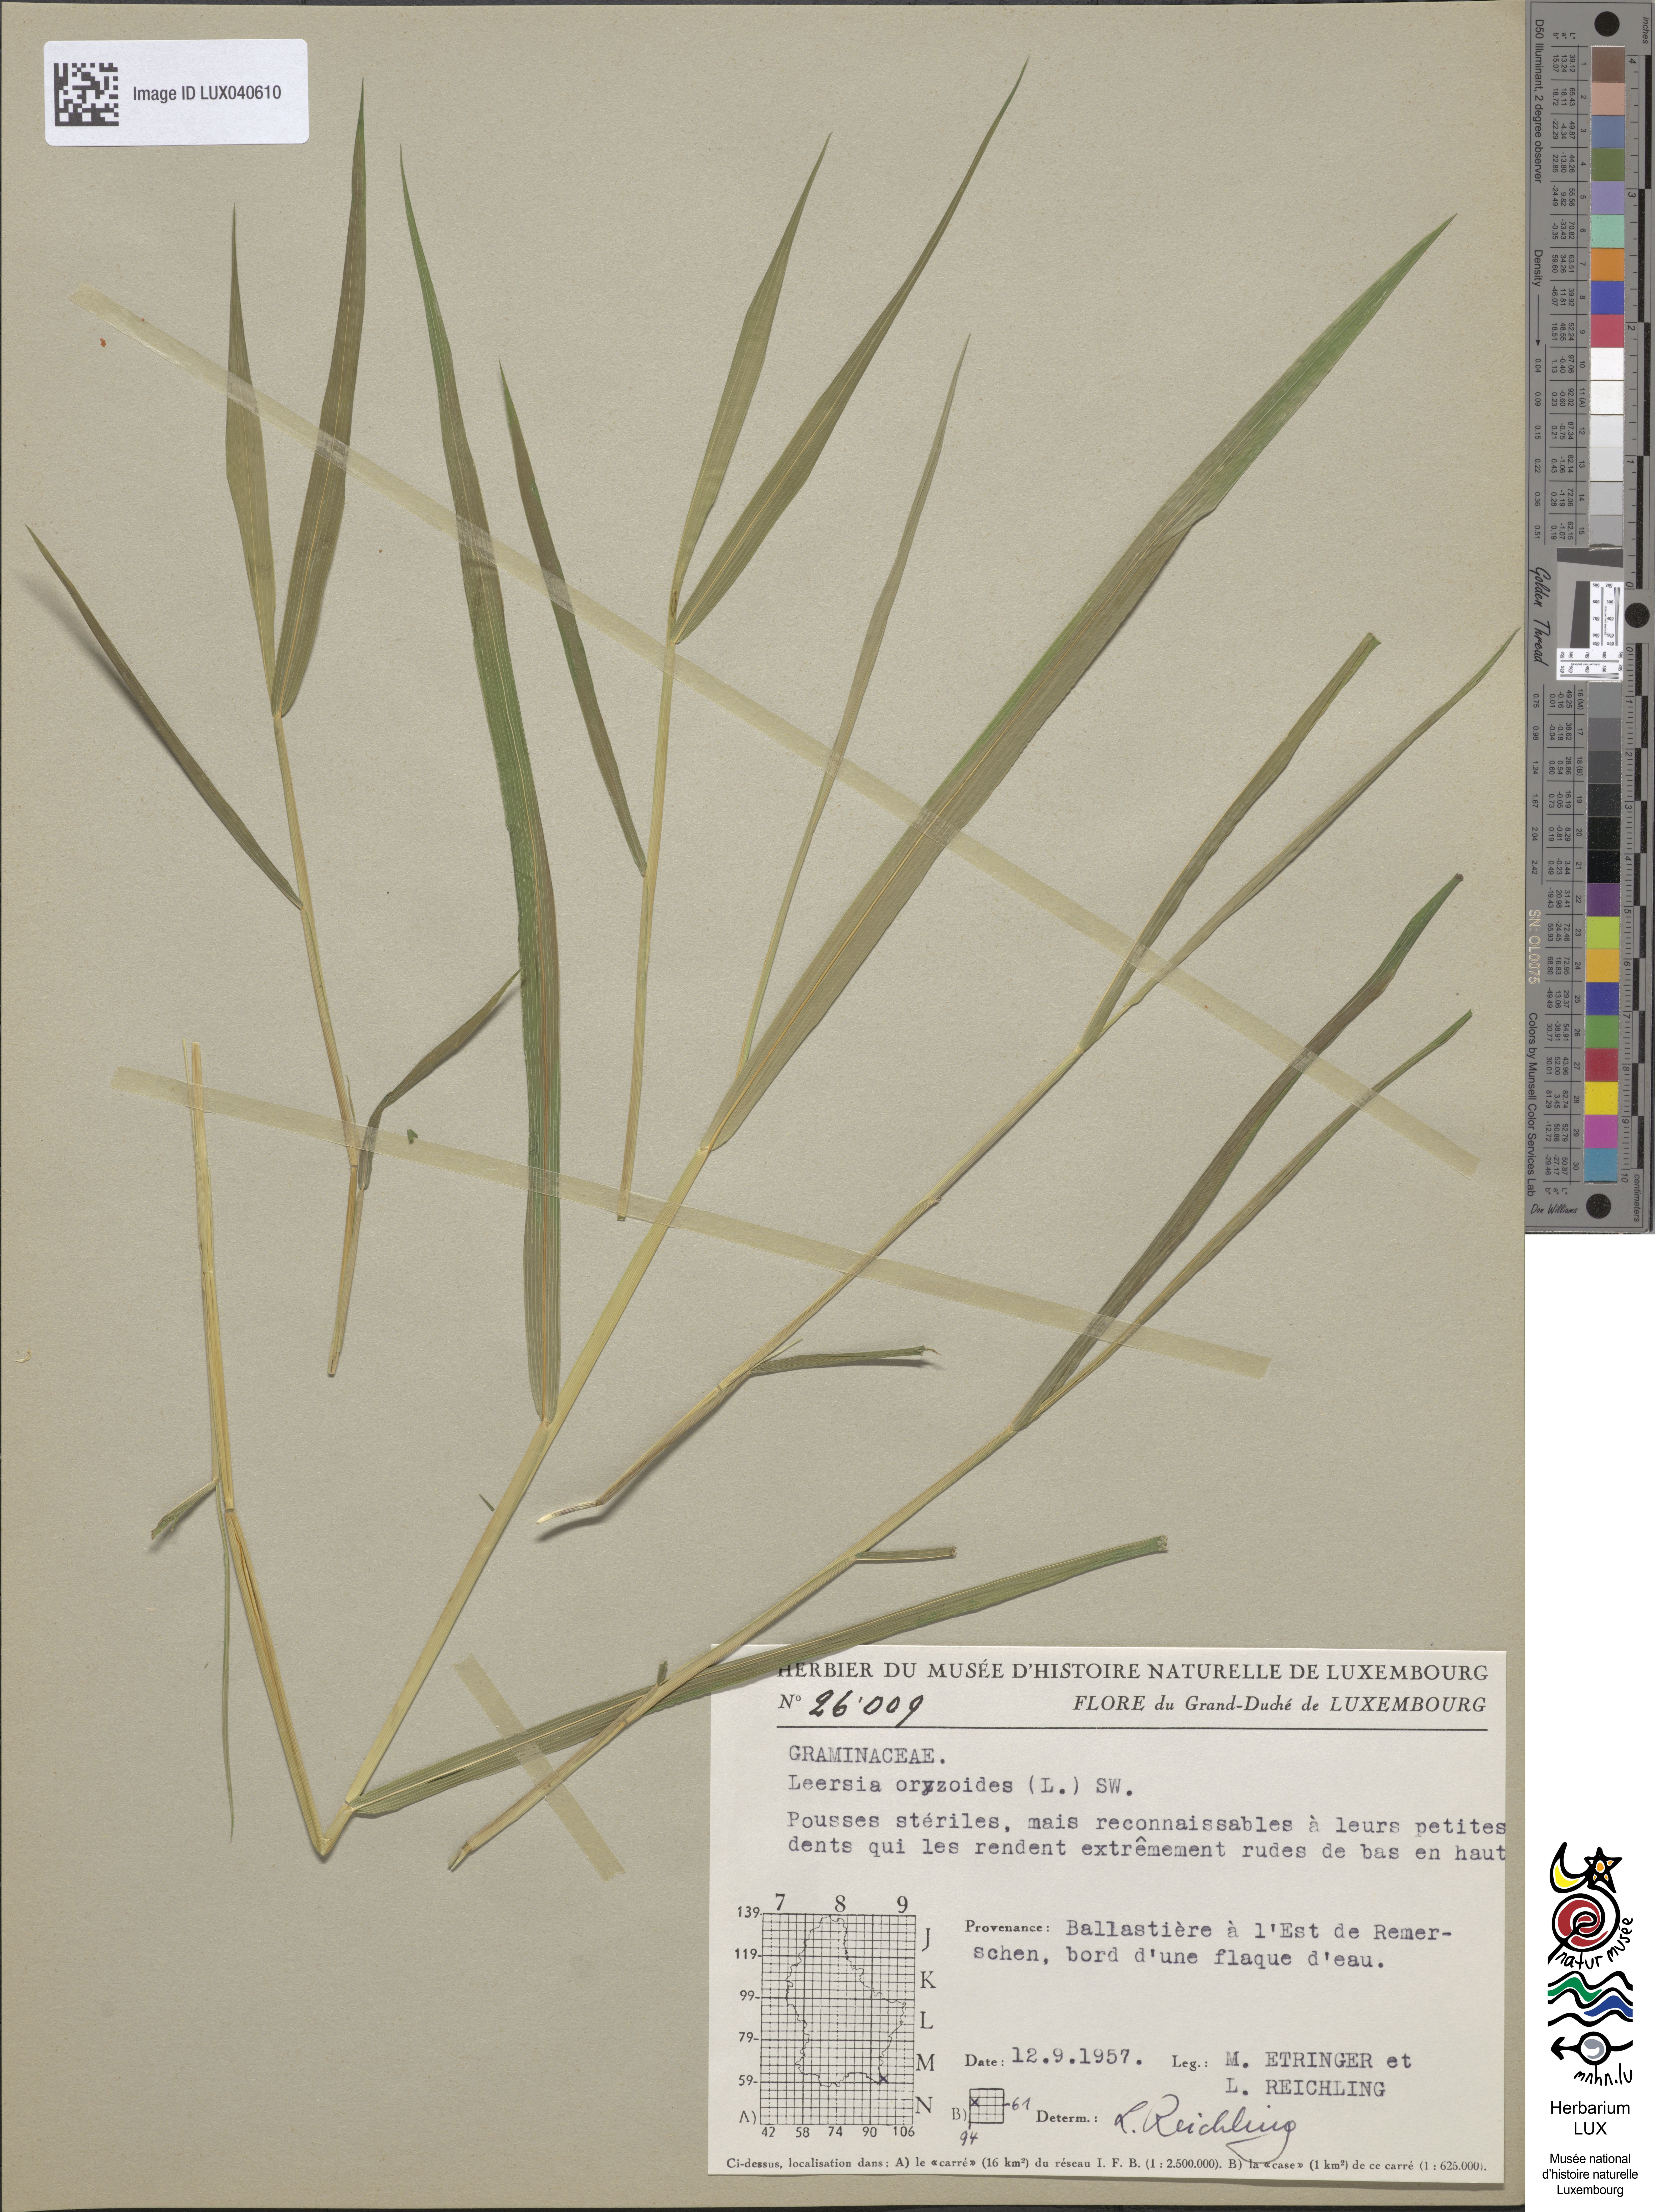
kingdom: Plantae
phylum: Tracheophyta
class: Liliopsida
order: Poales
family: Poaceae
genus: Leersia
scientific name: Leersia oryzoides
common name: Cut-grass
